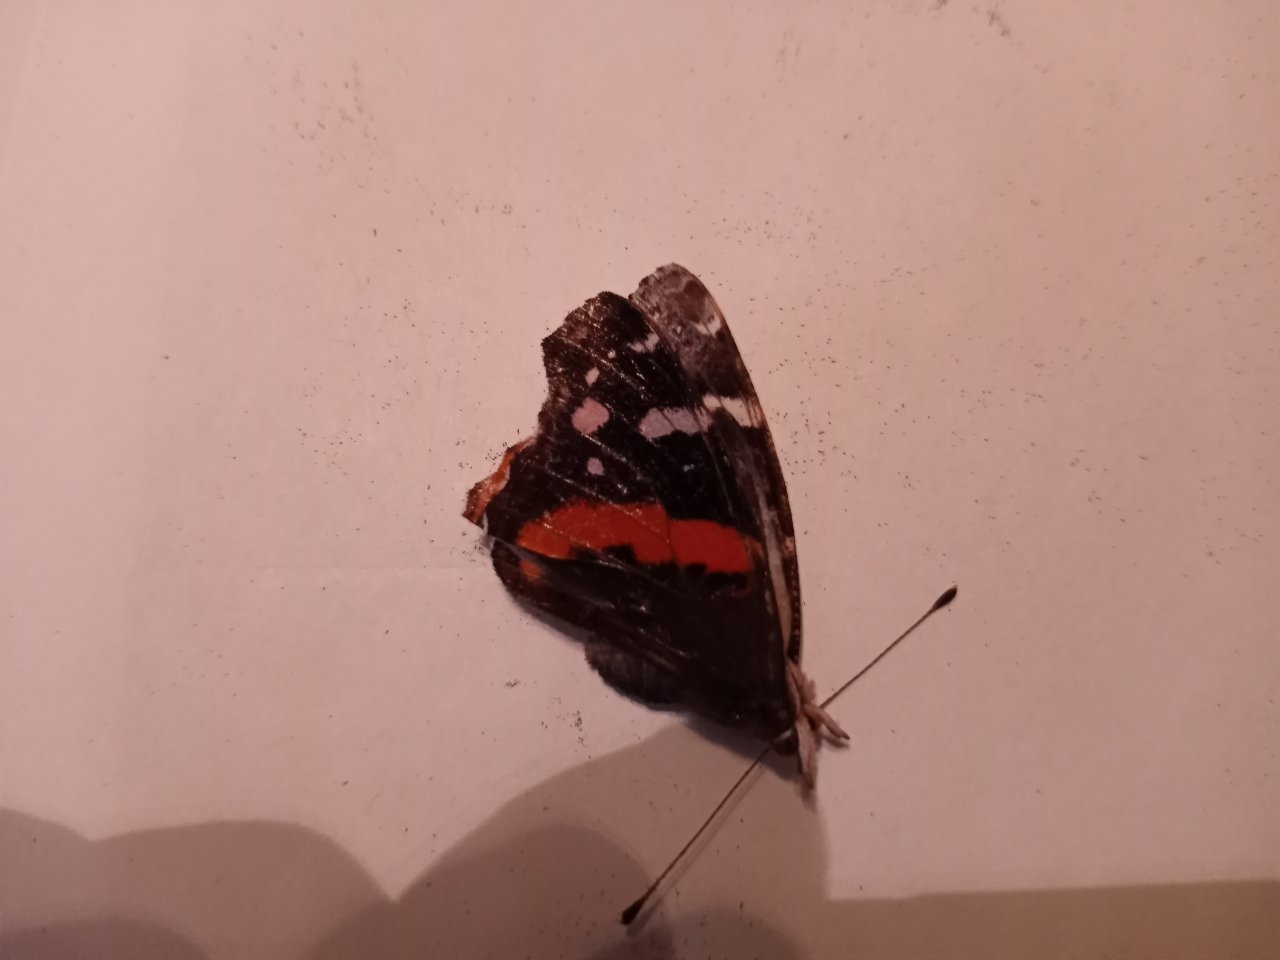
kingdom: Animalia
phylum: Arthropoda
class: Insecta
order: Lepidoptera
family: Nymphalidae
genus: Vanessa
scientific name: Vanessa atalanta
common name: Red Admiral
